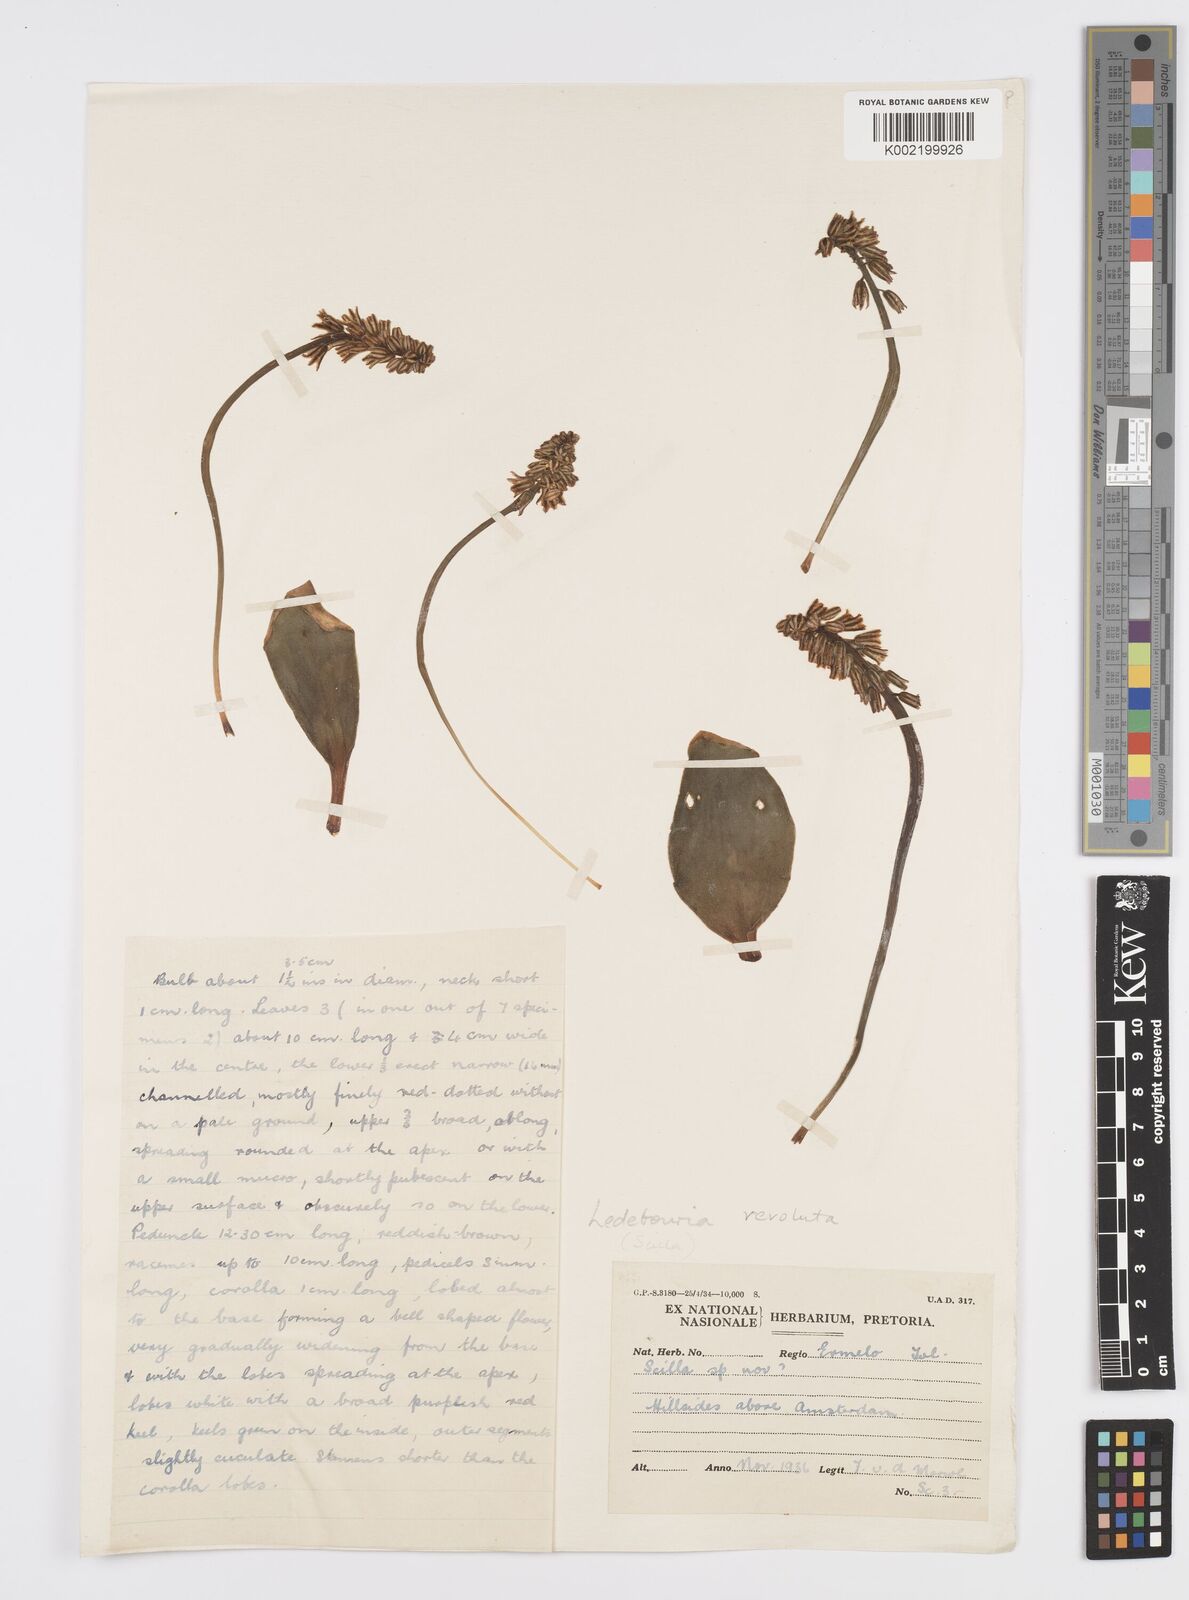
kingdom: Plantae
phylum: Tracheophyta
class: Liliopsida
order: Asparagales
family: Asparagaceae
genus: Ledebouria
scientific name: Ledebouria revoluta
